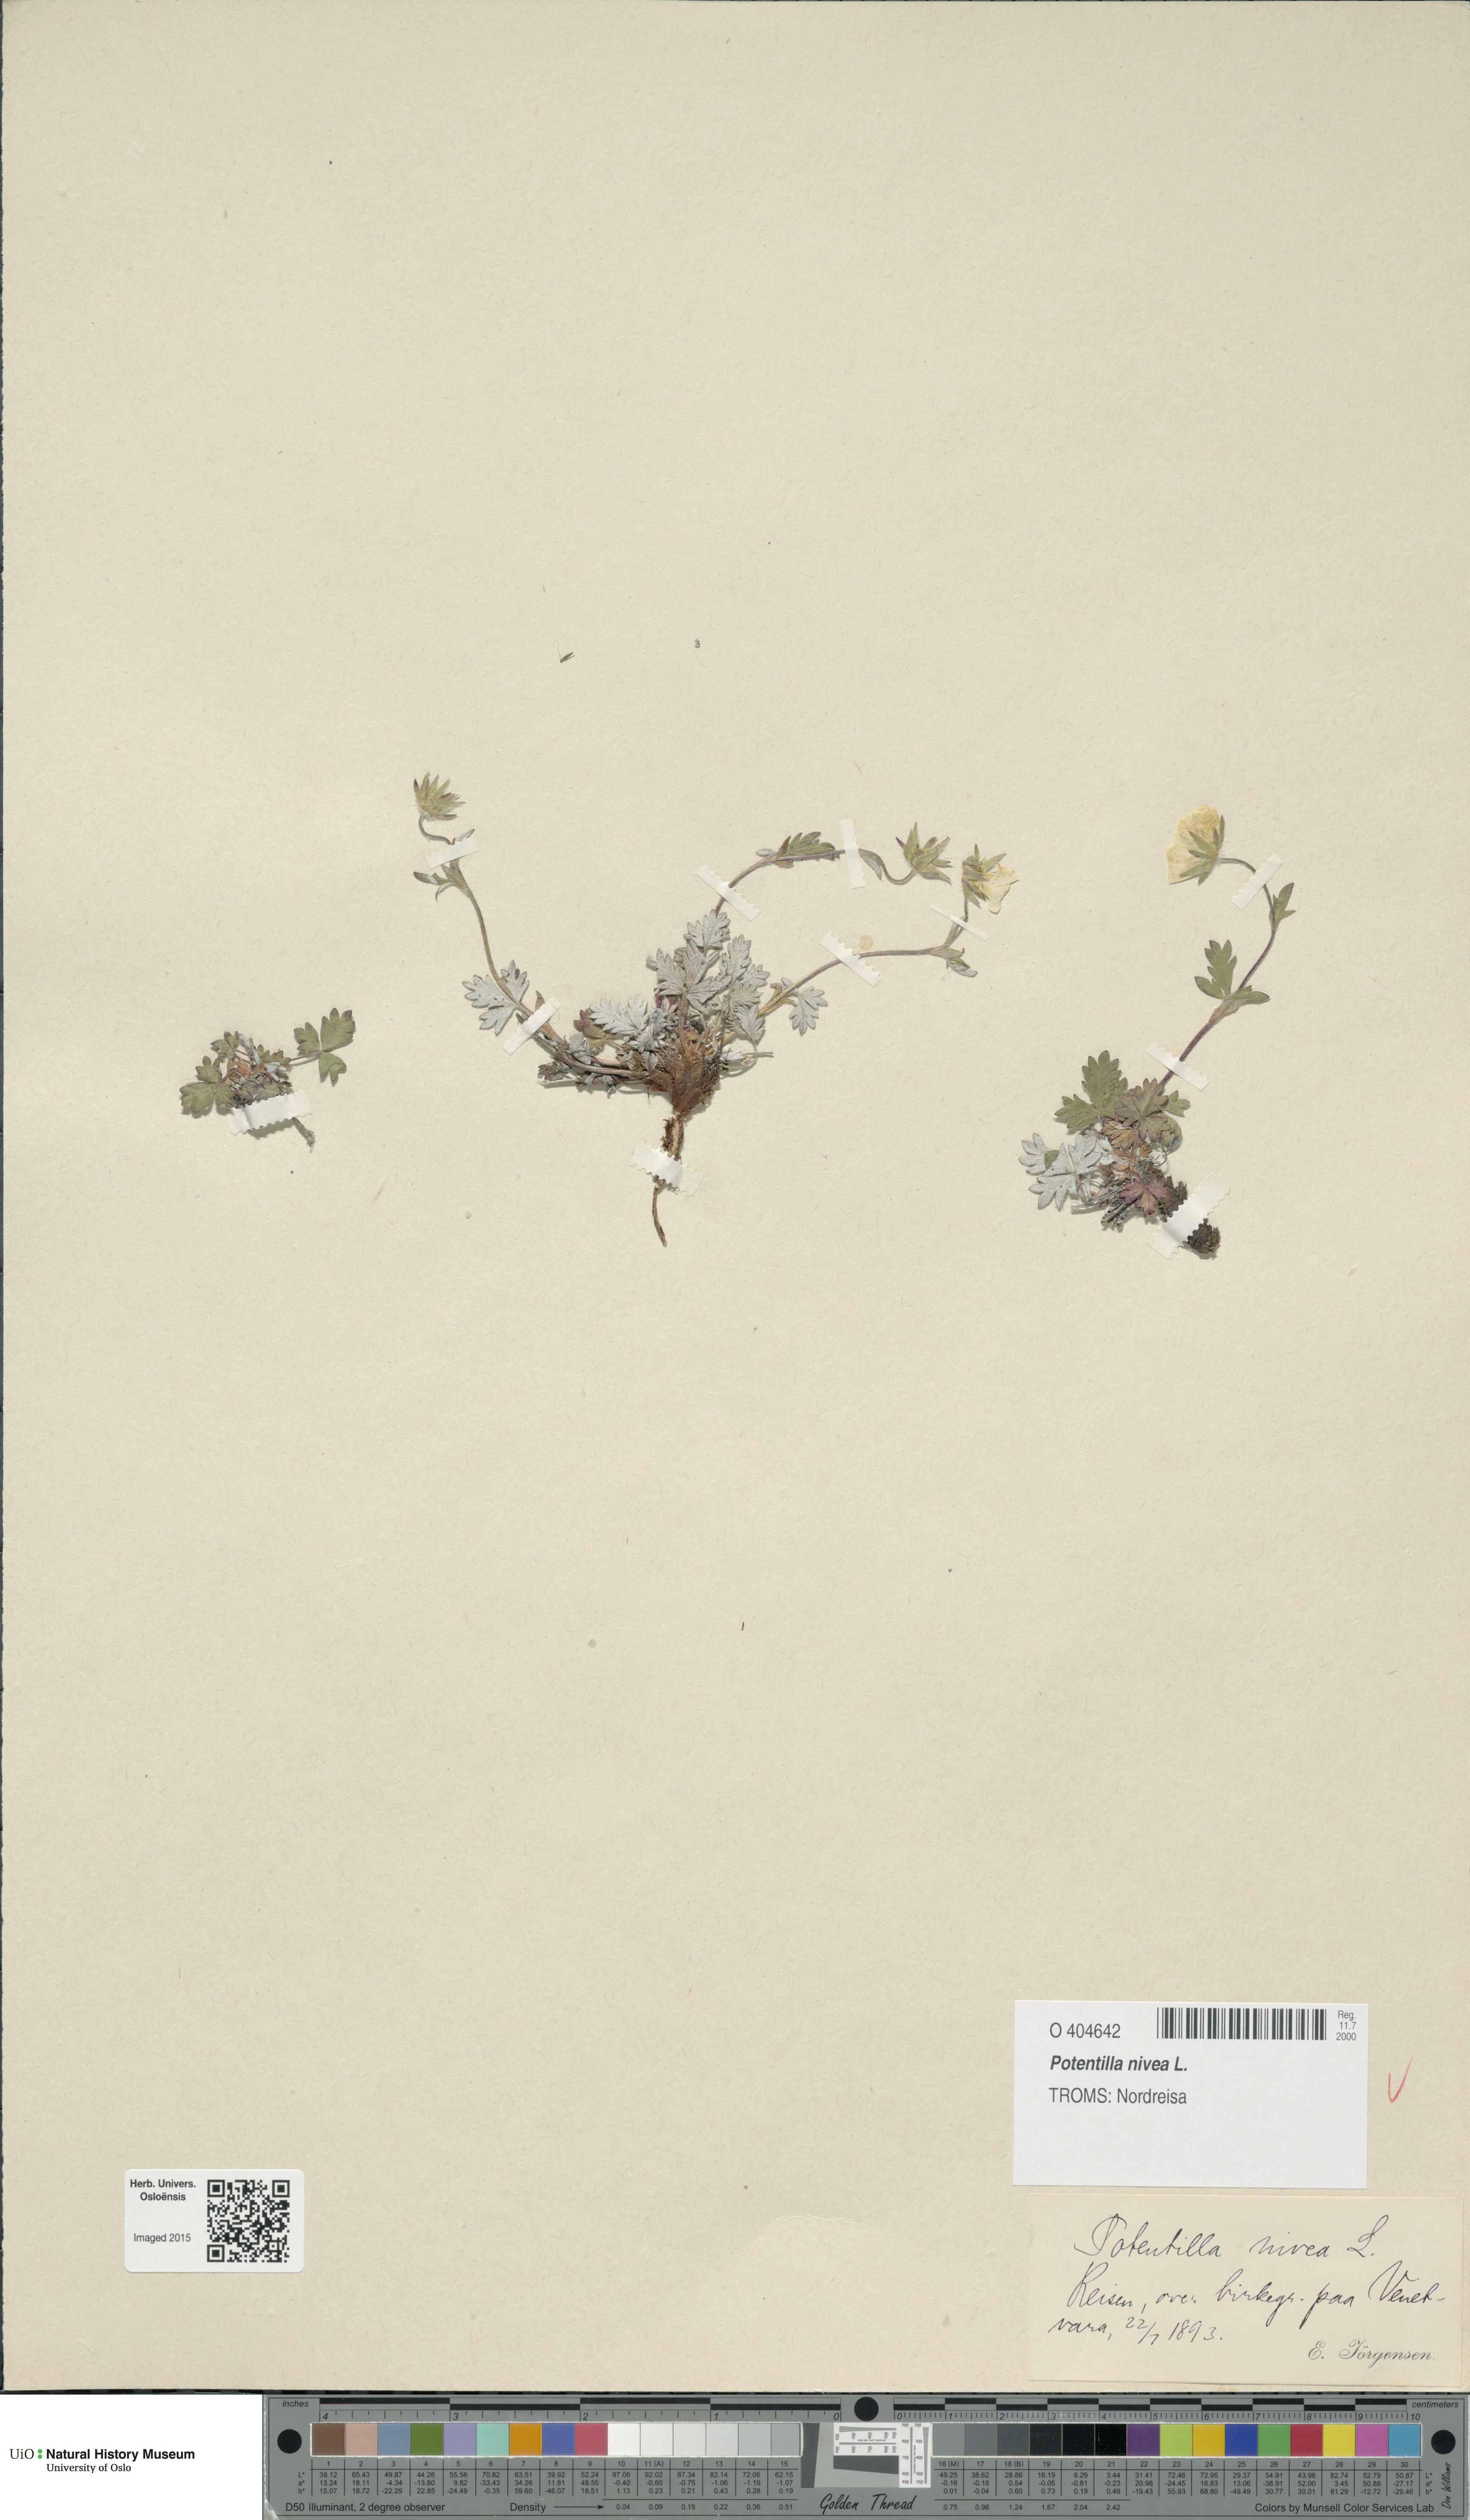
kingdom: Plantae
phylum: Tracheophyta
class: Magnoliopsida
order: Rosales
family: Rosaceae
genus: Potentilla
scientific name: Potentilla arenosa
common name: Bluff cinquefoil
